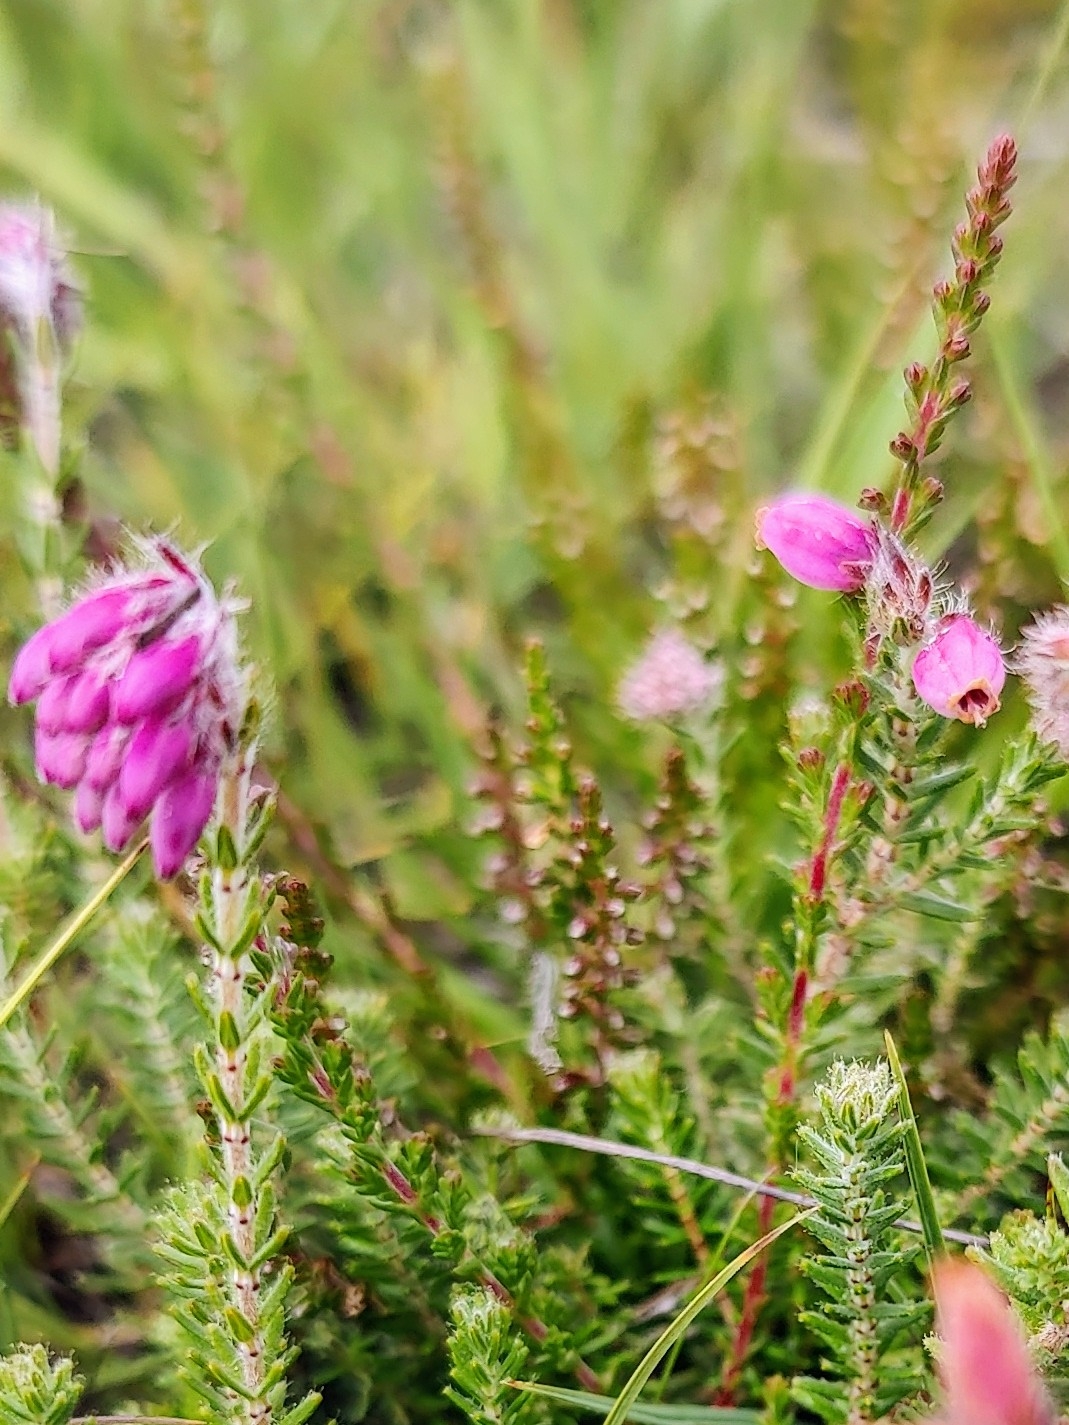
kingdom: Plantae
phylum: Tracheophyta
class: Magnoliopsida
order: Ericales
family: Ericaceae
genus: Erica
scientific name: Erica tetralix
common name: Klokkelyng
